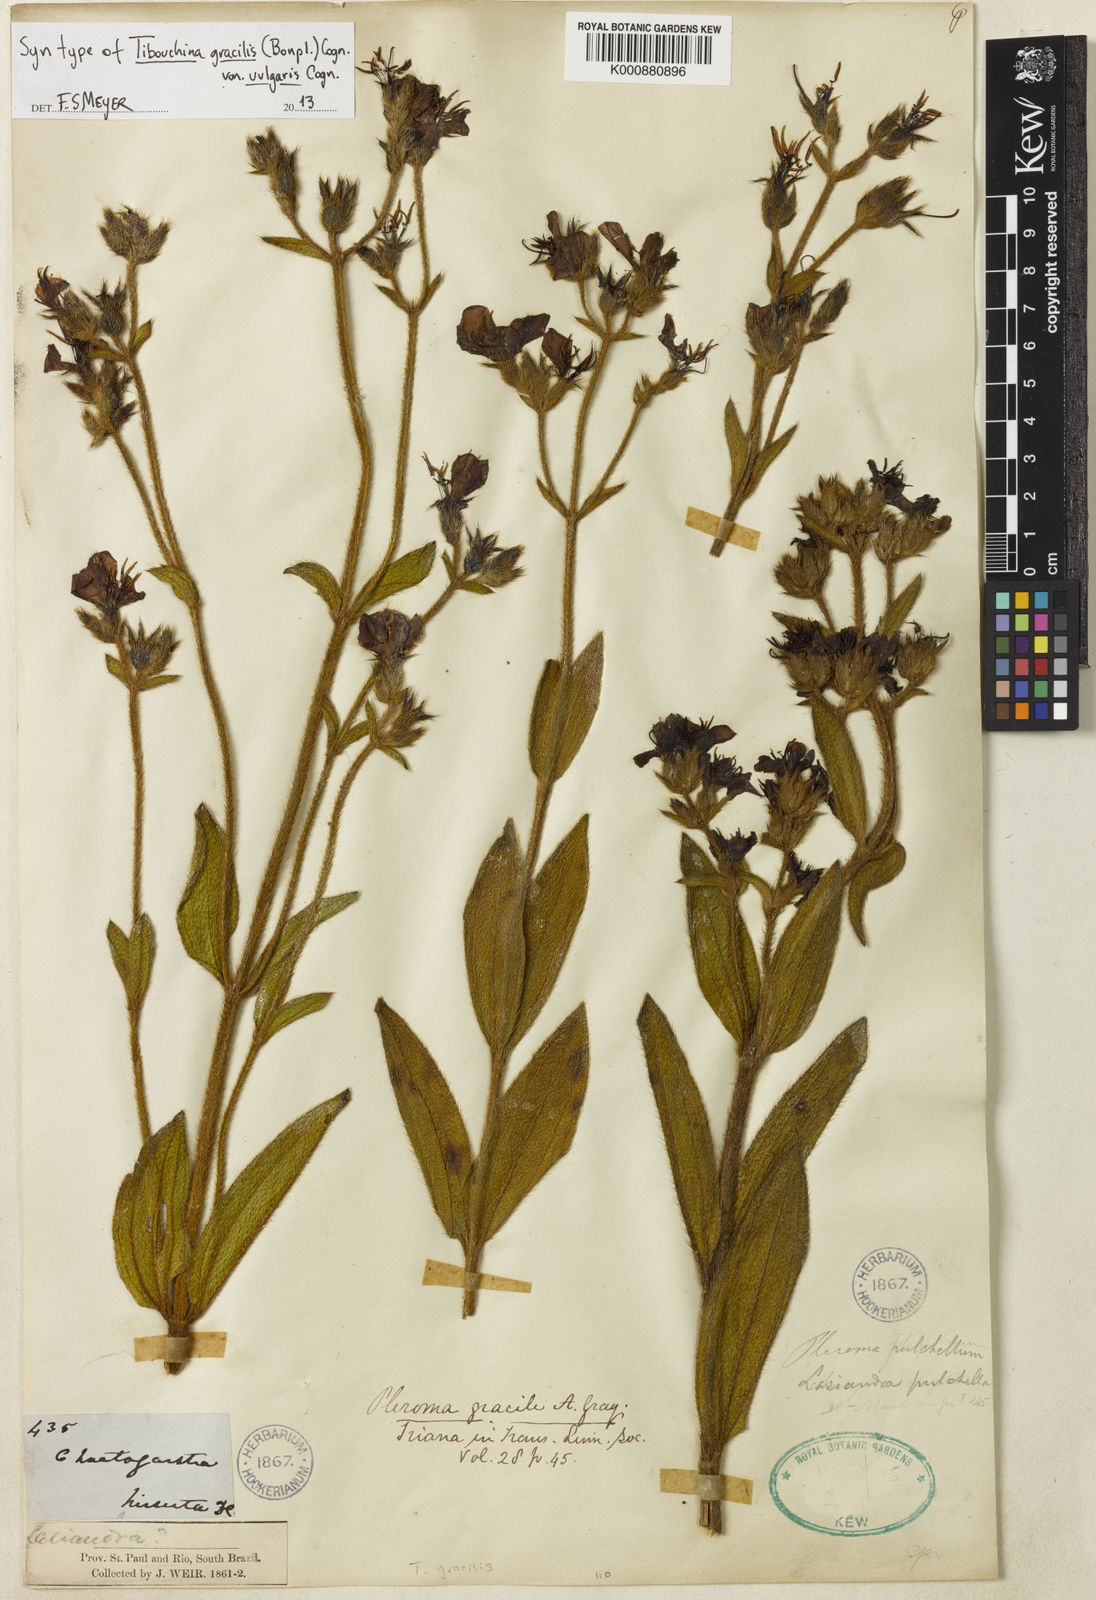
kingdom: Plantae
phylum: Tracheophyta
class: Magnoliopsida
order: Myrtales
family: Melastomataceae
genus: Chaetogastra
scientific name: Chaetogastra gracilis
